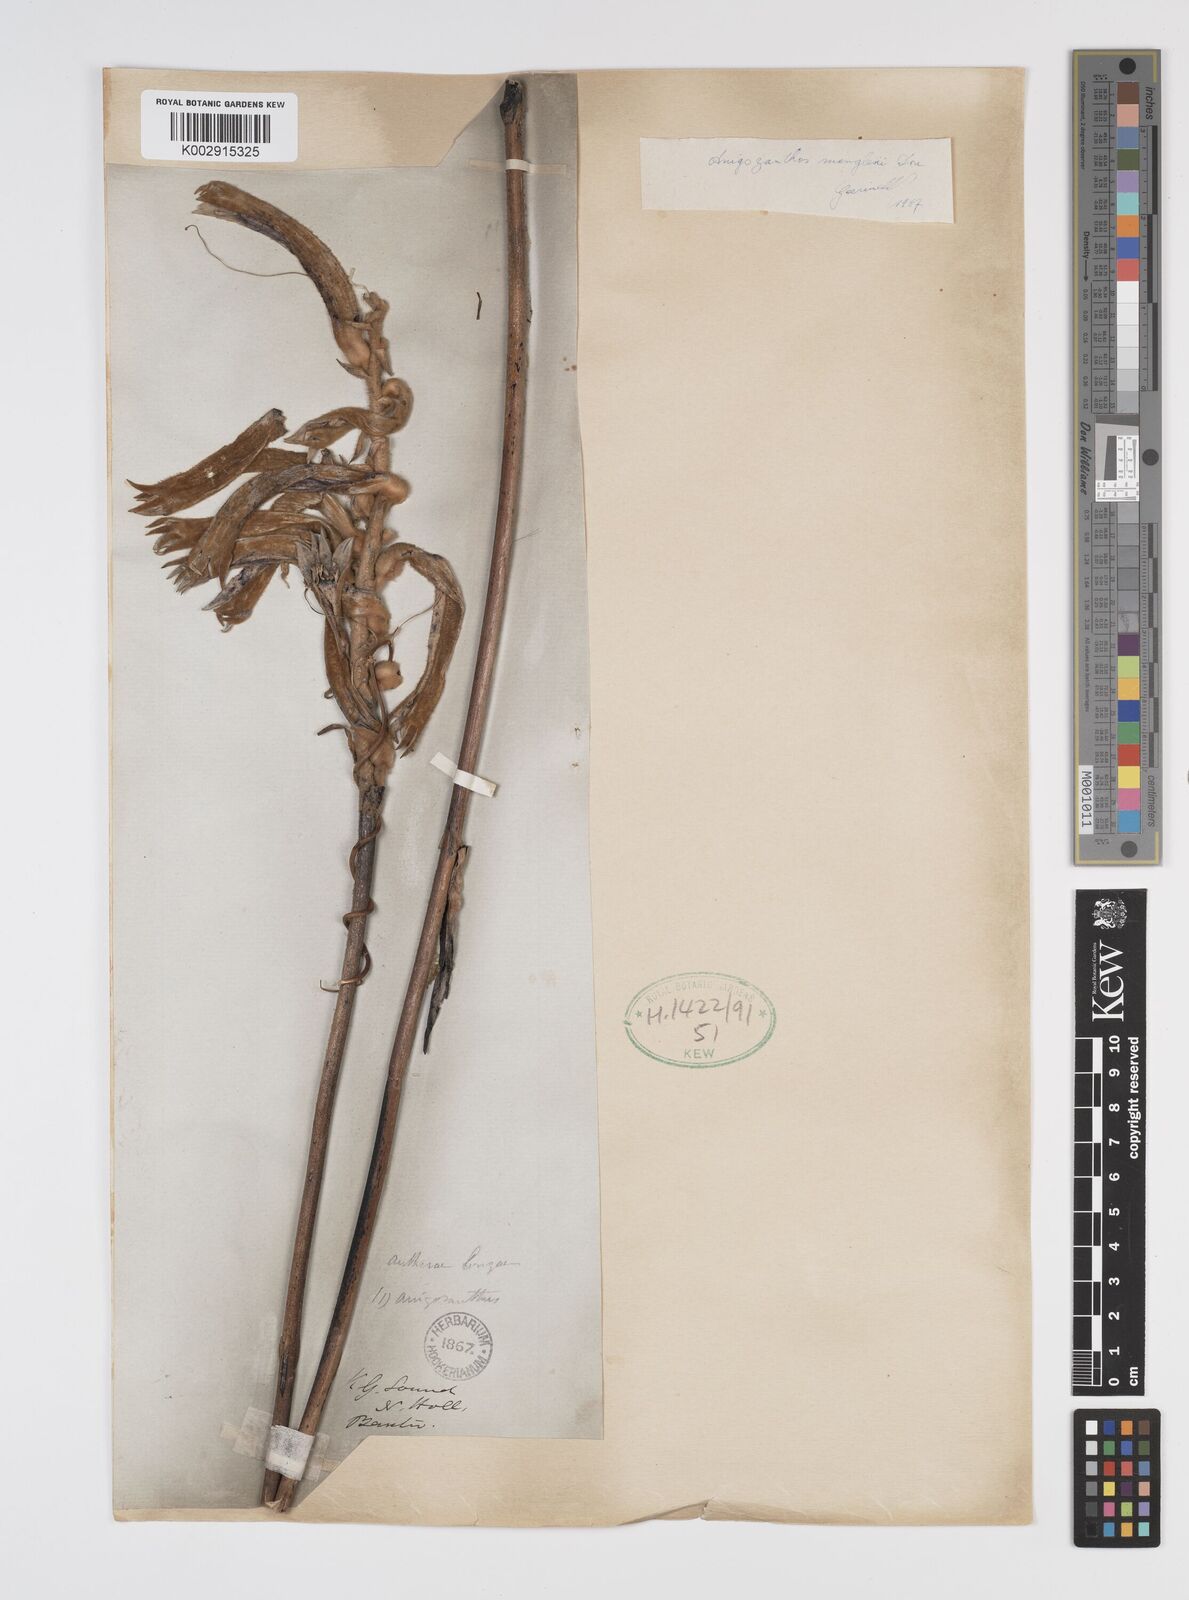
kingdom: Plantae
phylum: Tracheophyta
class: Liliopsida
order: Commelinales
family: Haemodoraceae
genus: Anigozanthos
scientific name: Anigozanthos manglesii
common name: Mangles's kangaroo-paw
